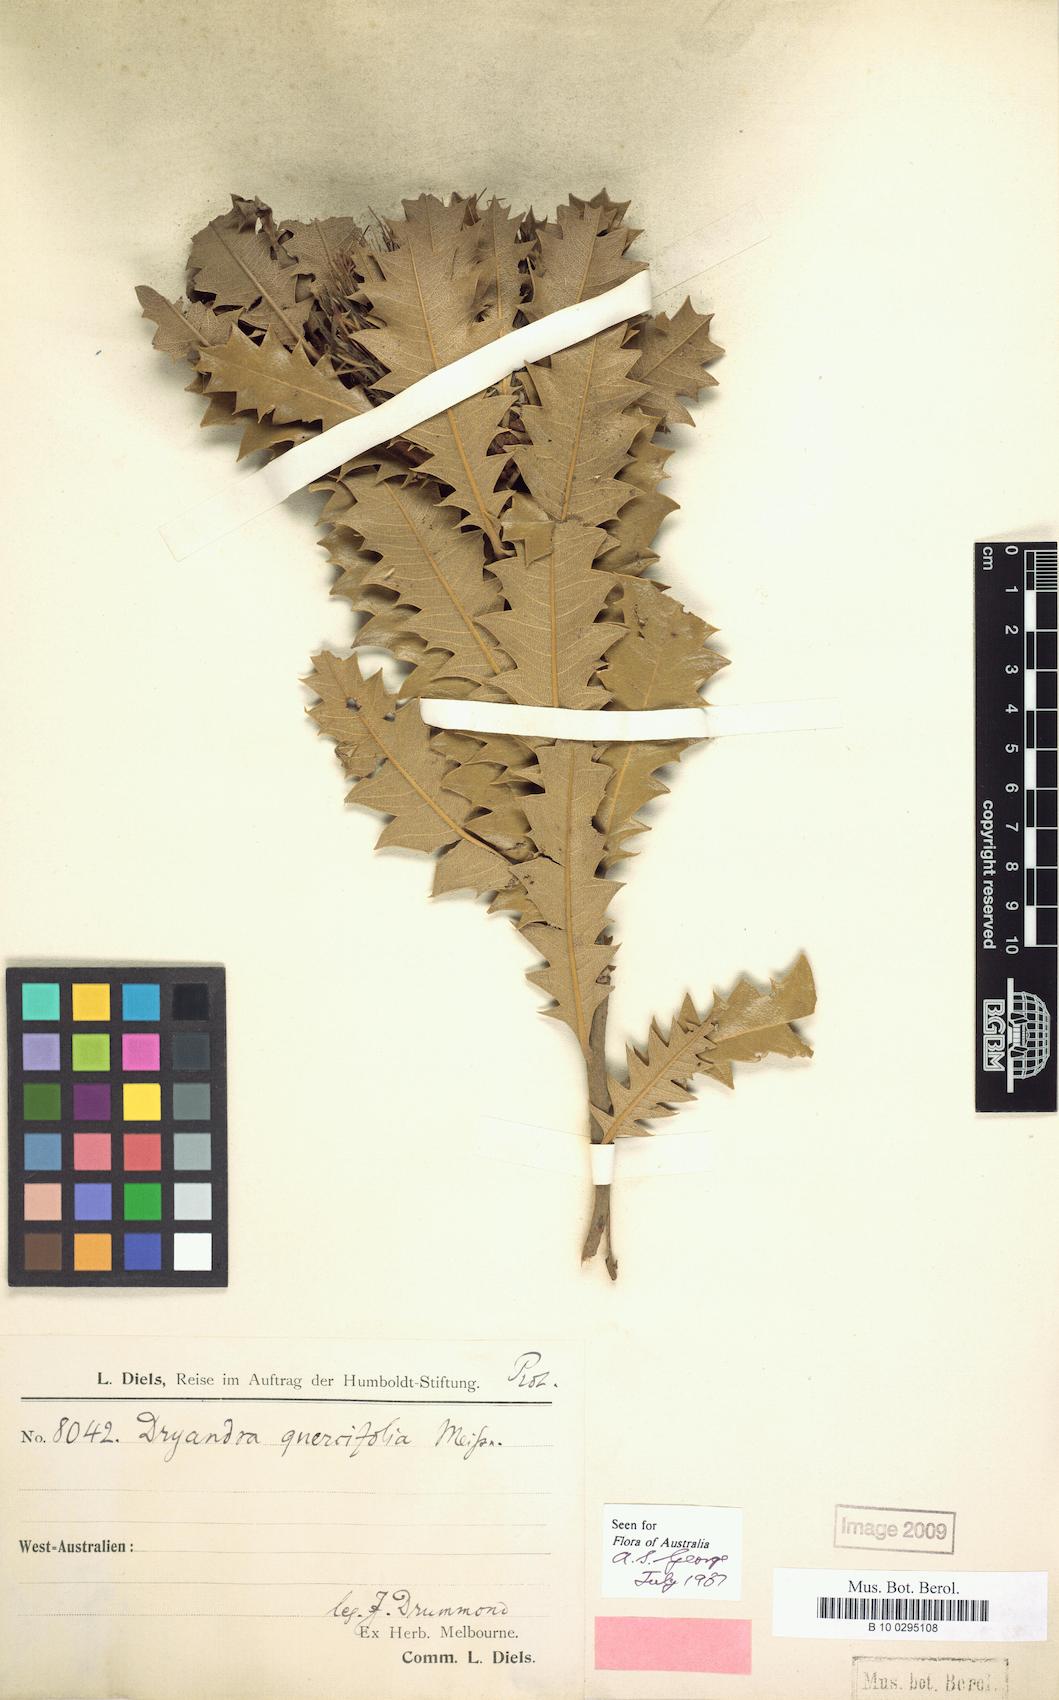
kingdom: Plantae
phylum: Tracheophyta
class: Magnoliopsida
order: Proteales
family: Proteaceae
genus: Banksia
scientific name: Banksia heliantha
